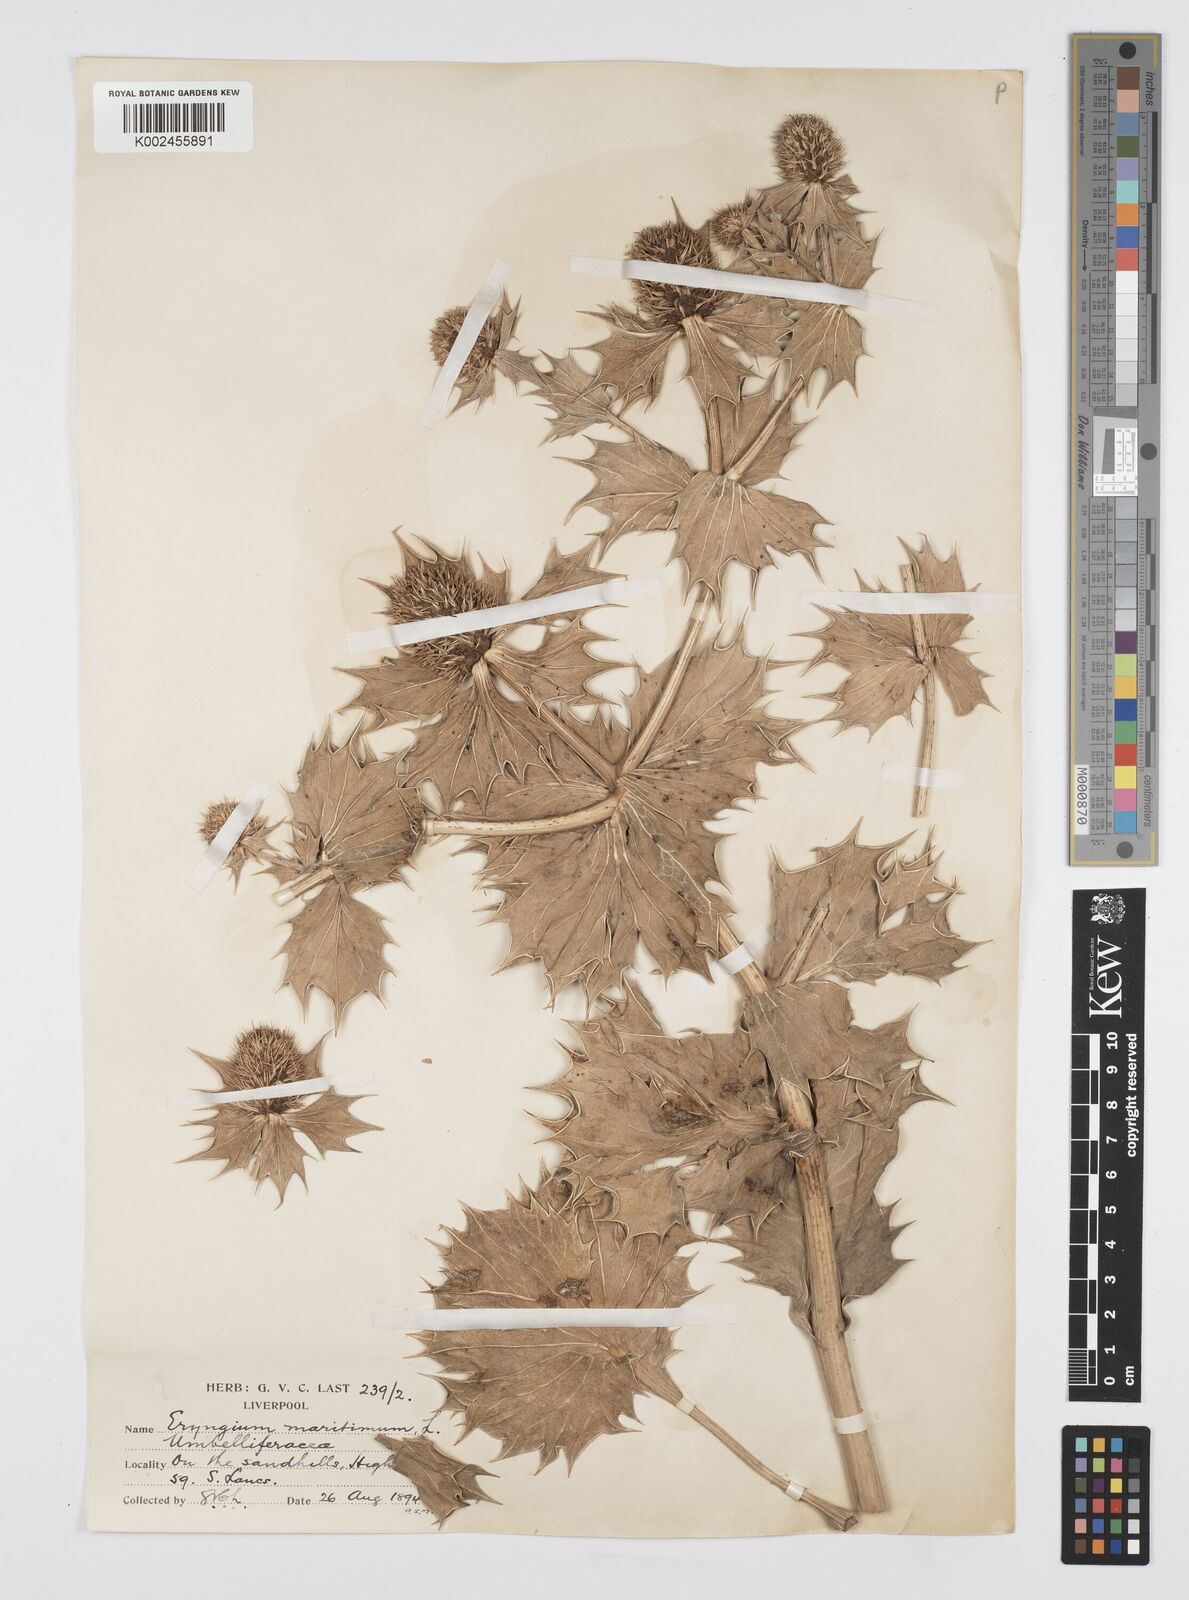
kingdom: Plantae
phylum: Tracheophyta
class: Magnoliopsida
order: Apiales
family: Apiaceae
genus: Eryngium
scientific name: Eryngium maritimum
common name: Sea-holly
